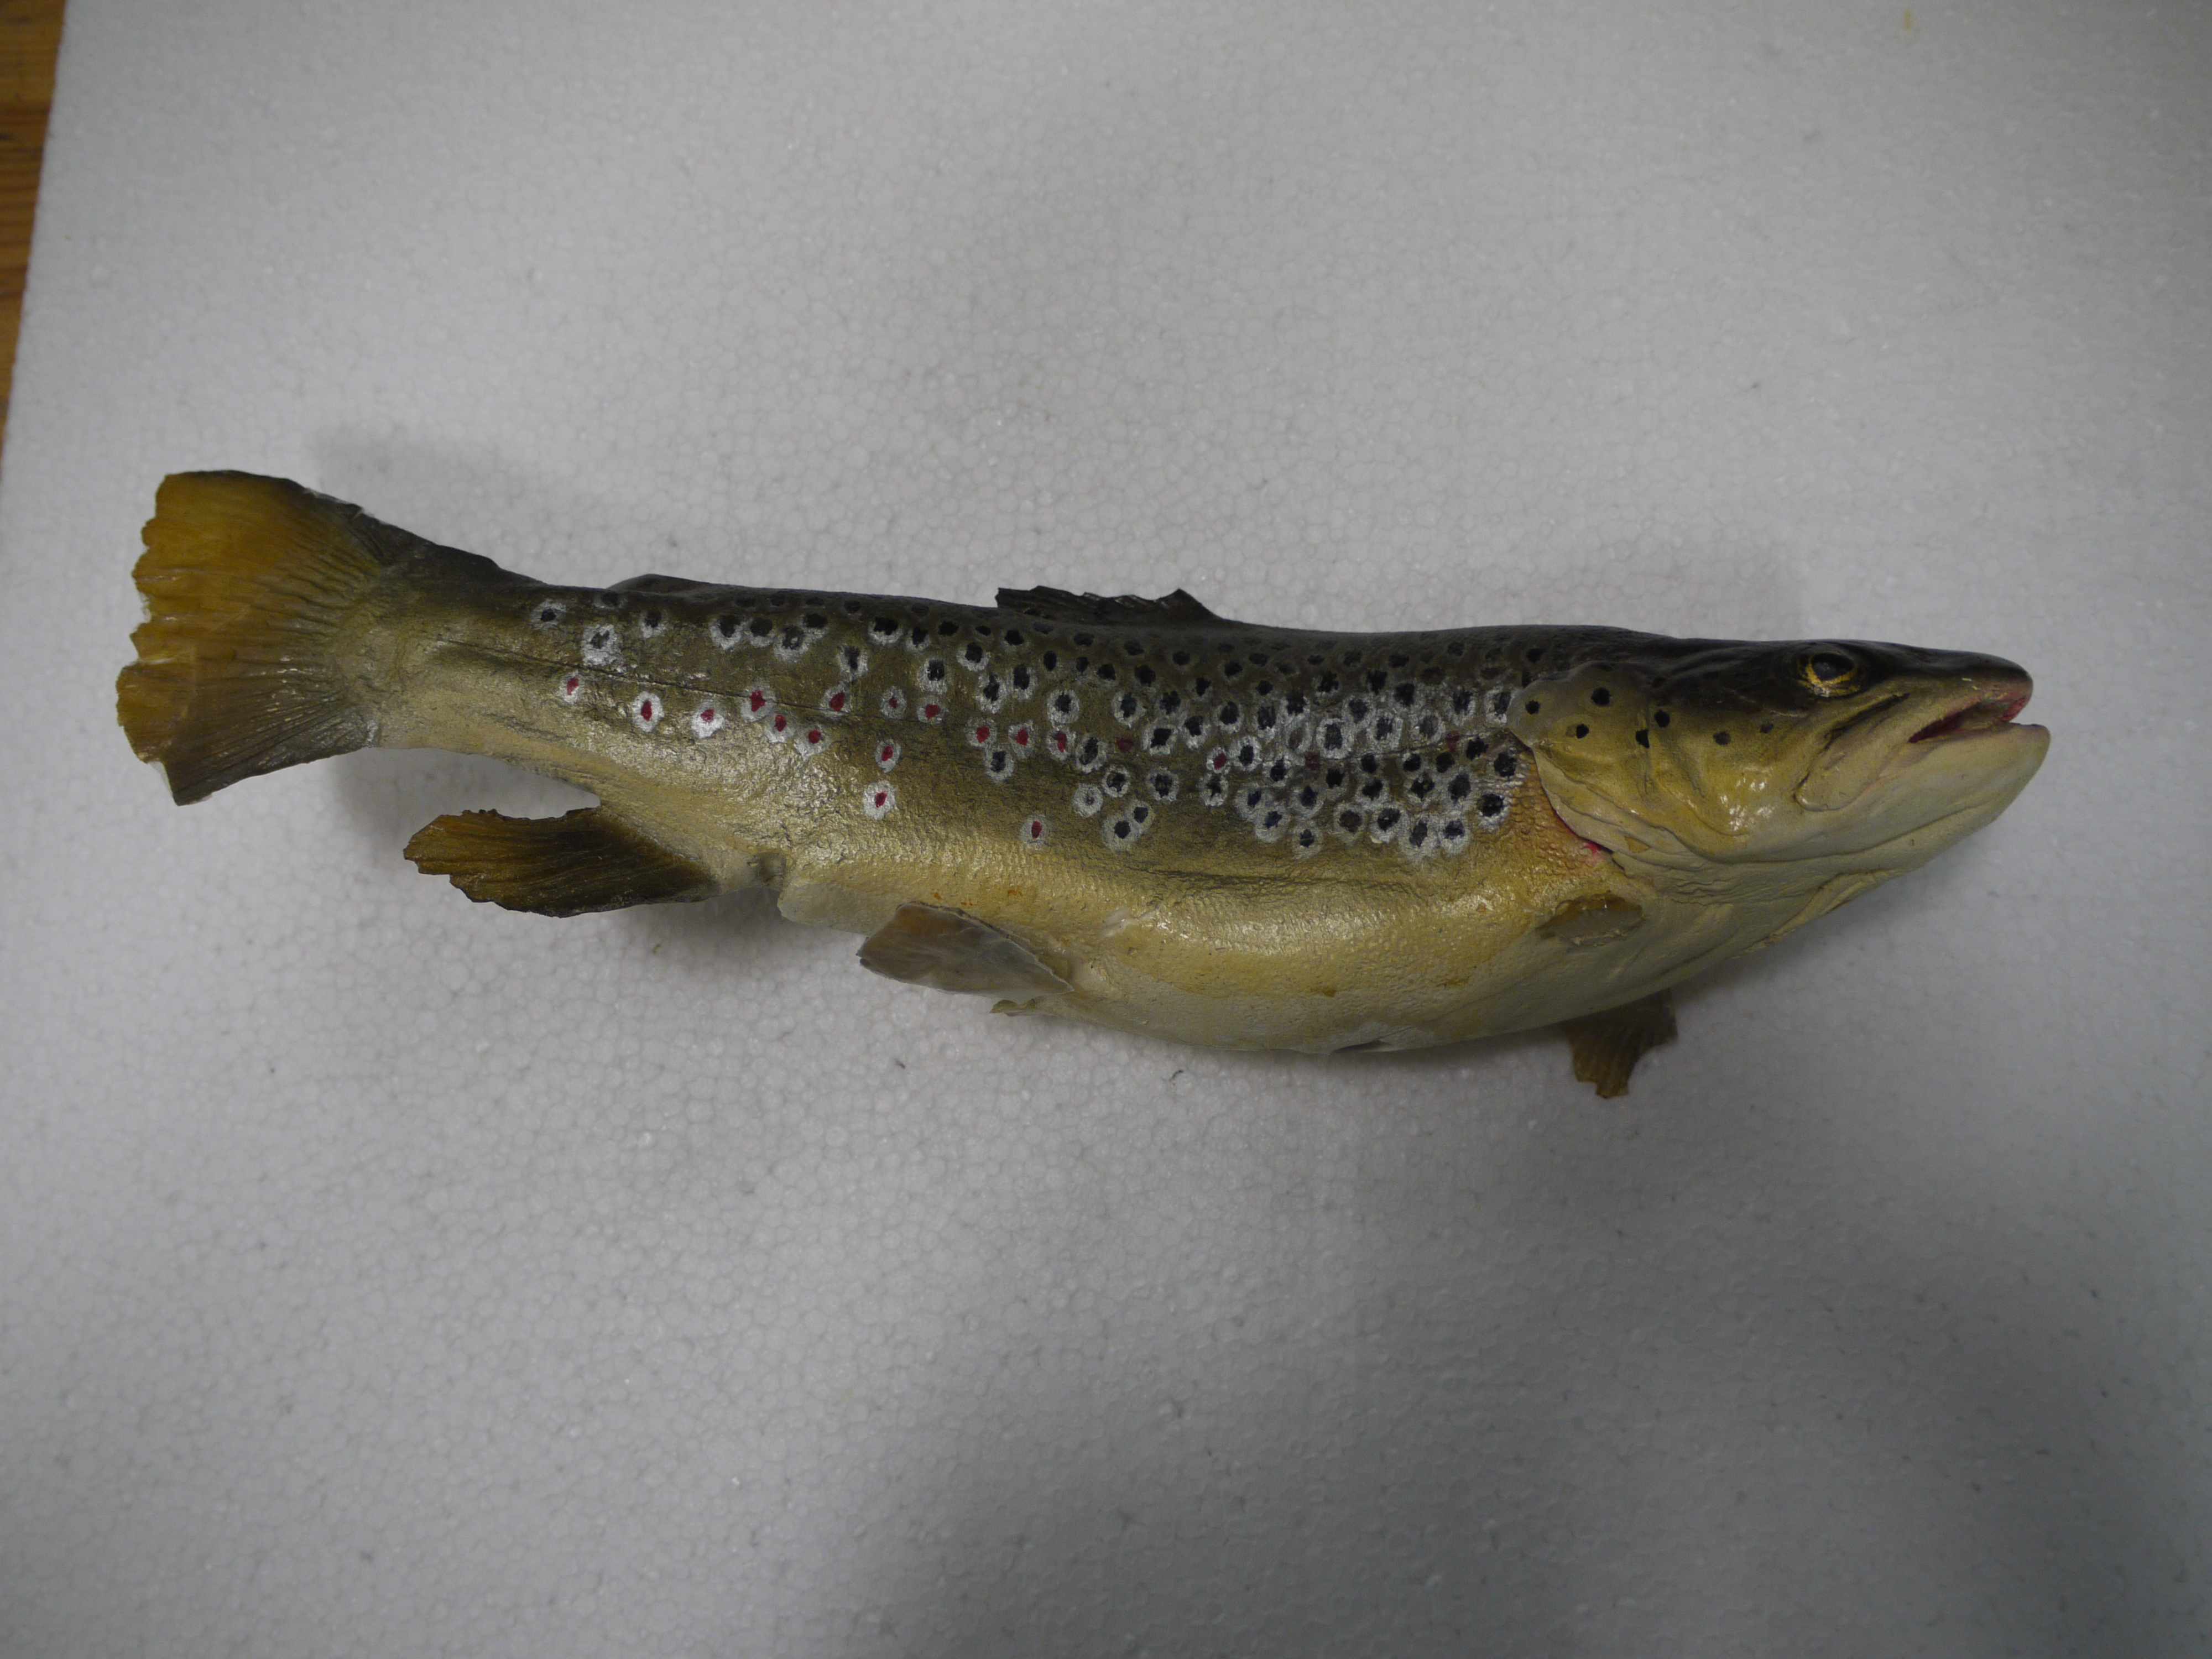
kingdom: Animalia
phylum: Chordata
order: Salmoniformes
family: Salmonidae
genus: Salmo
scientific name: Salmo trutta
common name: Brown trout
